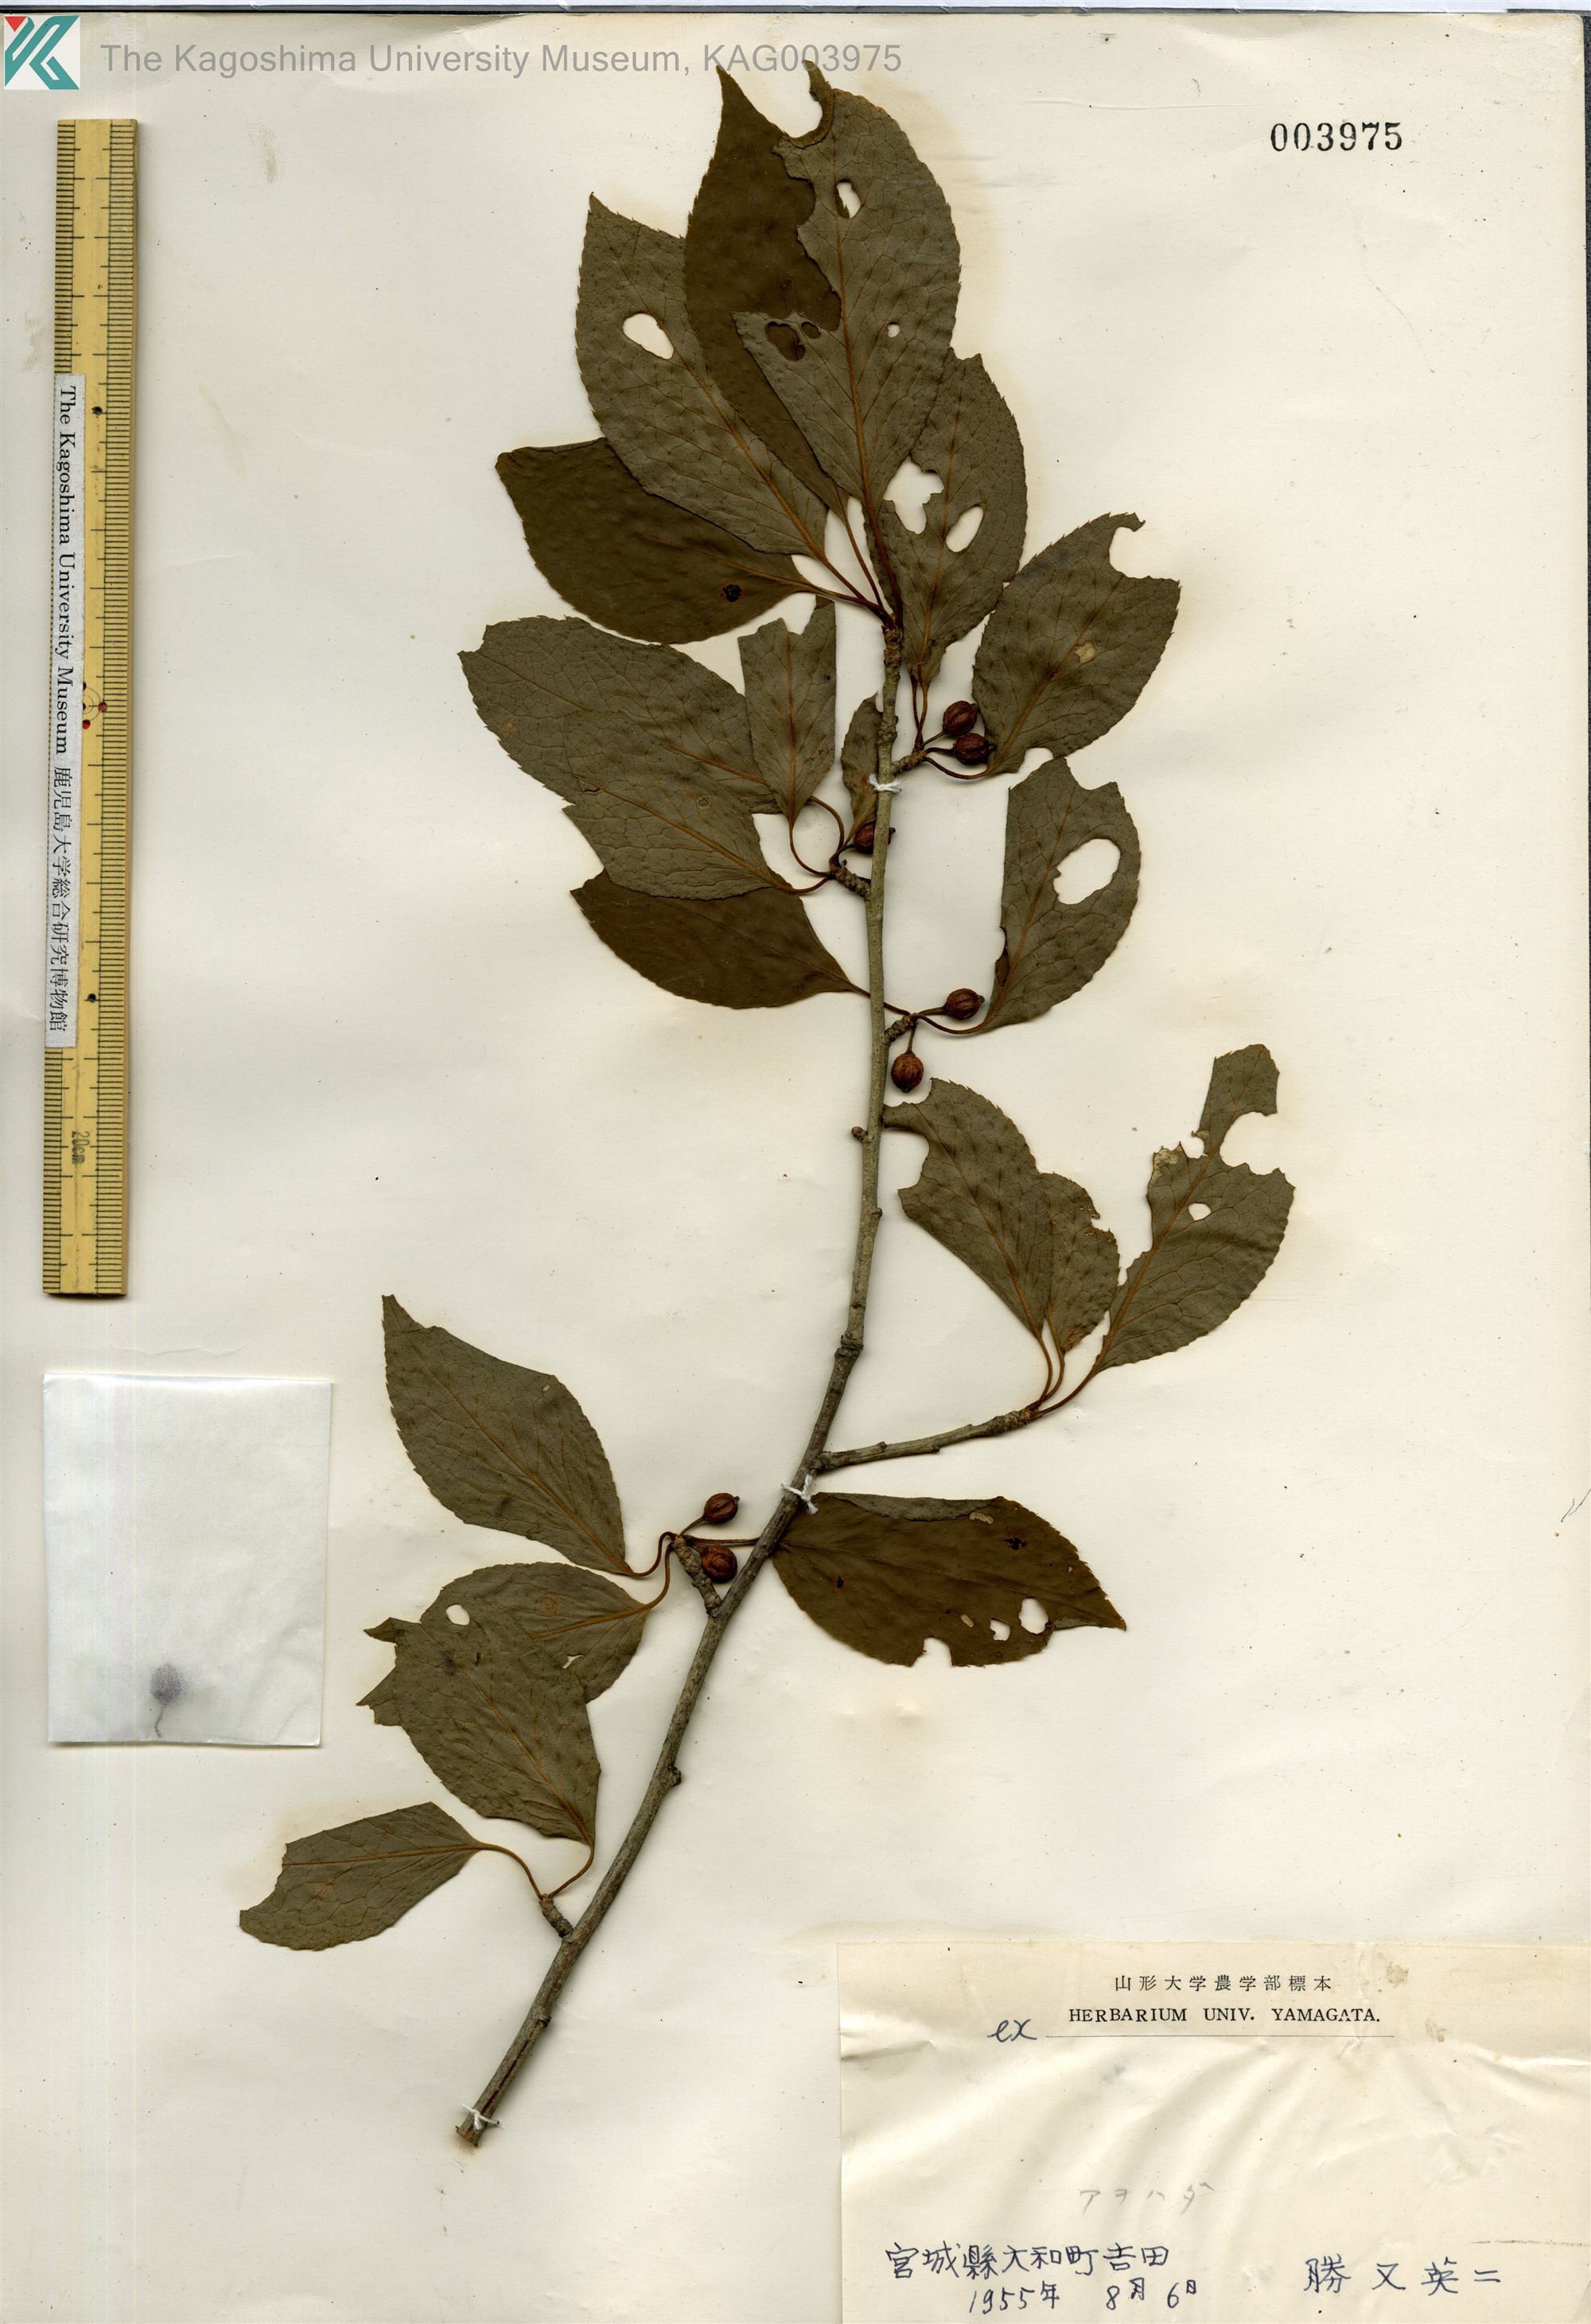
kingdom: Plantae
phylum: Tracheophyta
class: Magnoliopsida
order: Aquifoliales
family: Aquifoliaceae
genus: Ilex
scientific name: Ilex macropoda
